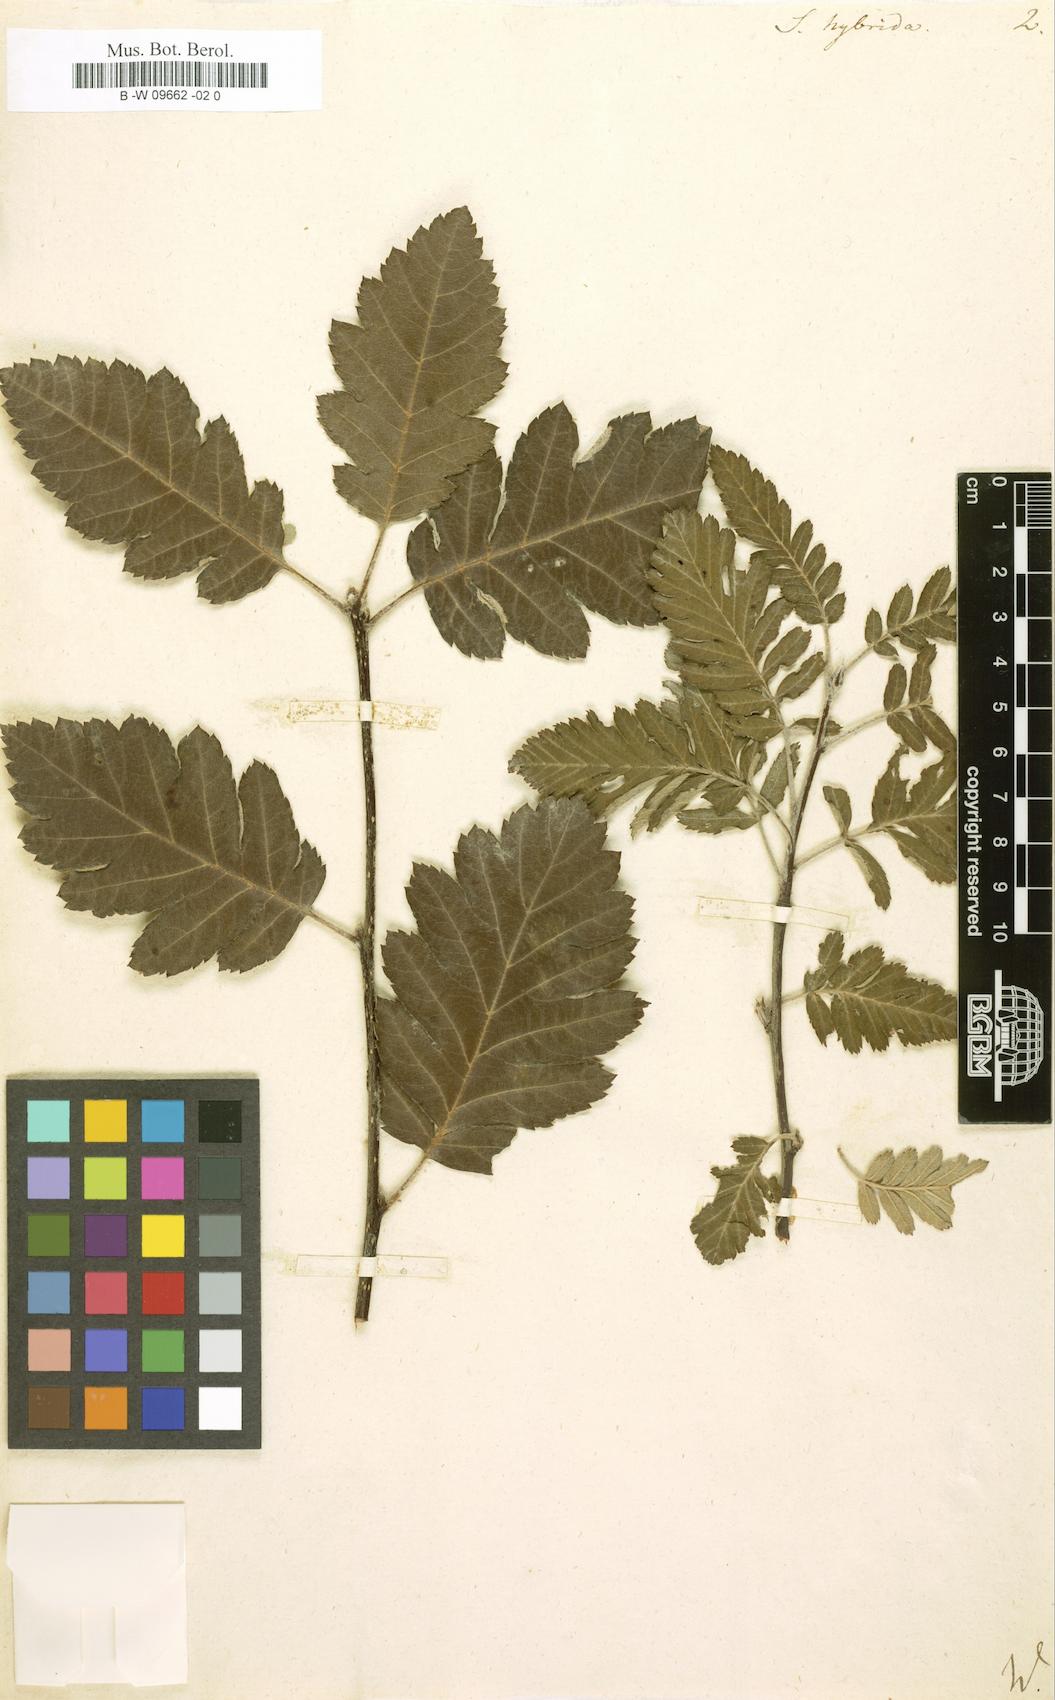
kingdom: Plantae
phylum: Tracheophyta
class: Magnoliopsida
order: Rosales
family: Rosaceae
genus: Hedlundia
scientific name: Hedlundia
